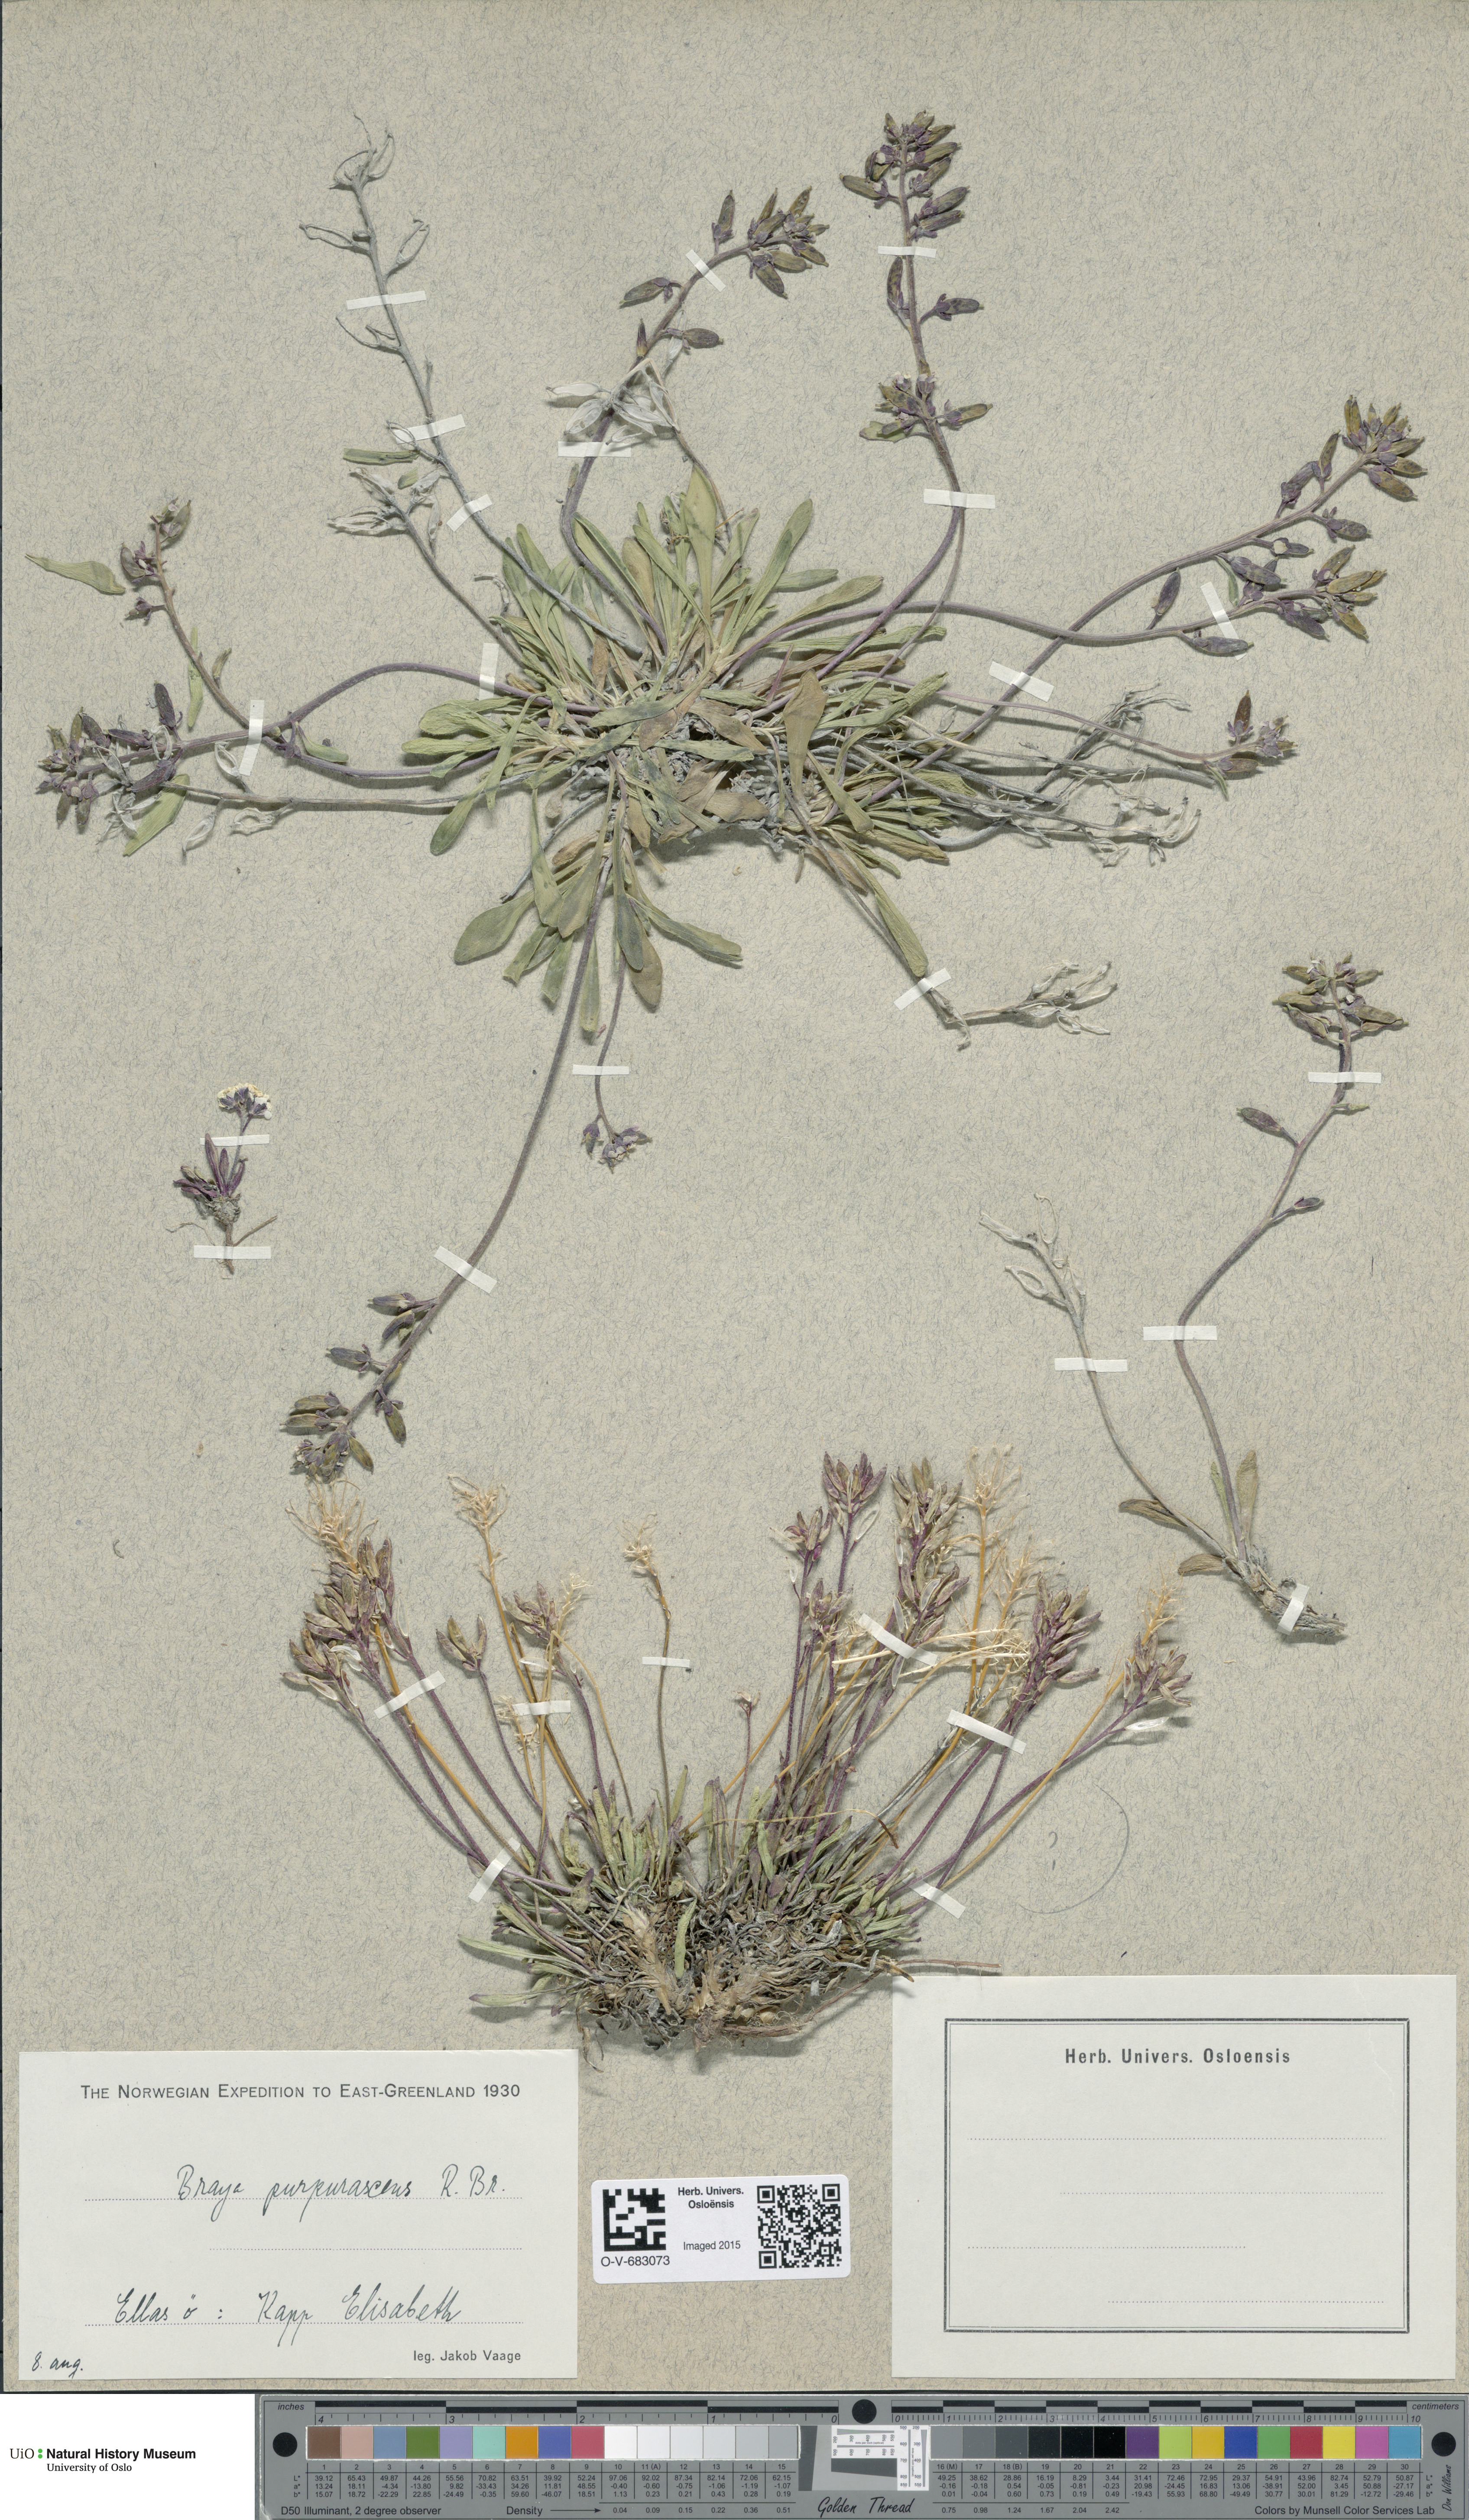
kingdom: Plantae
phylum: Tracheophyta
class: Magnoliopsida
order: Brassicales
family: Brassicaceae
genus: Braya
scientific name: Braya purpurascens
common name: Alpine braya
